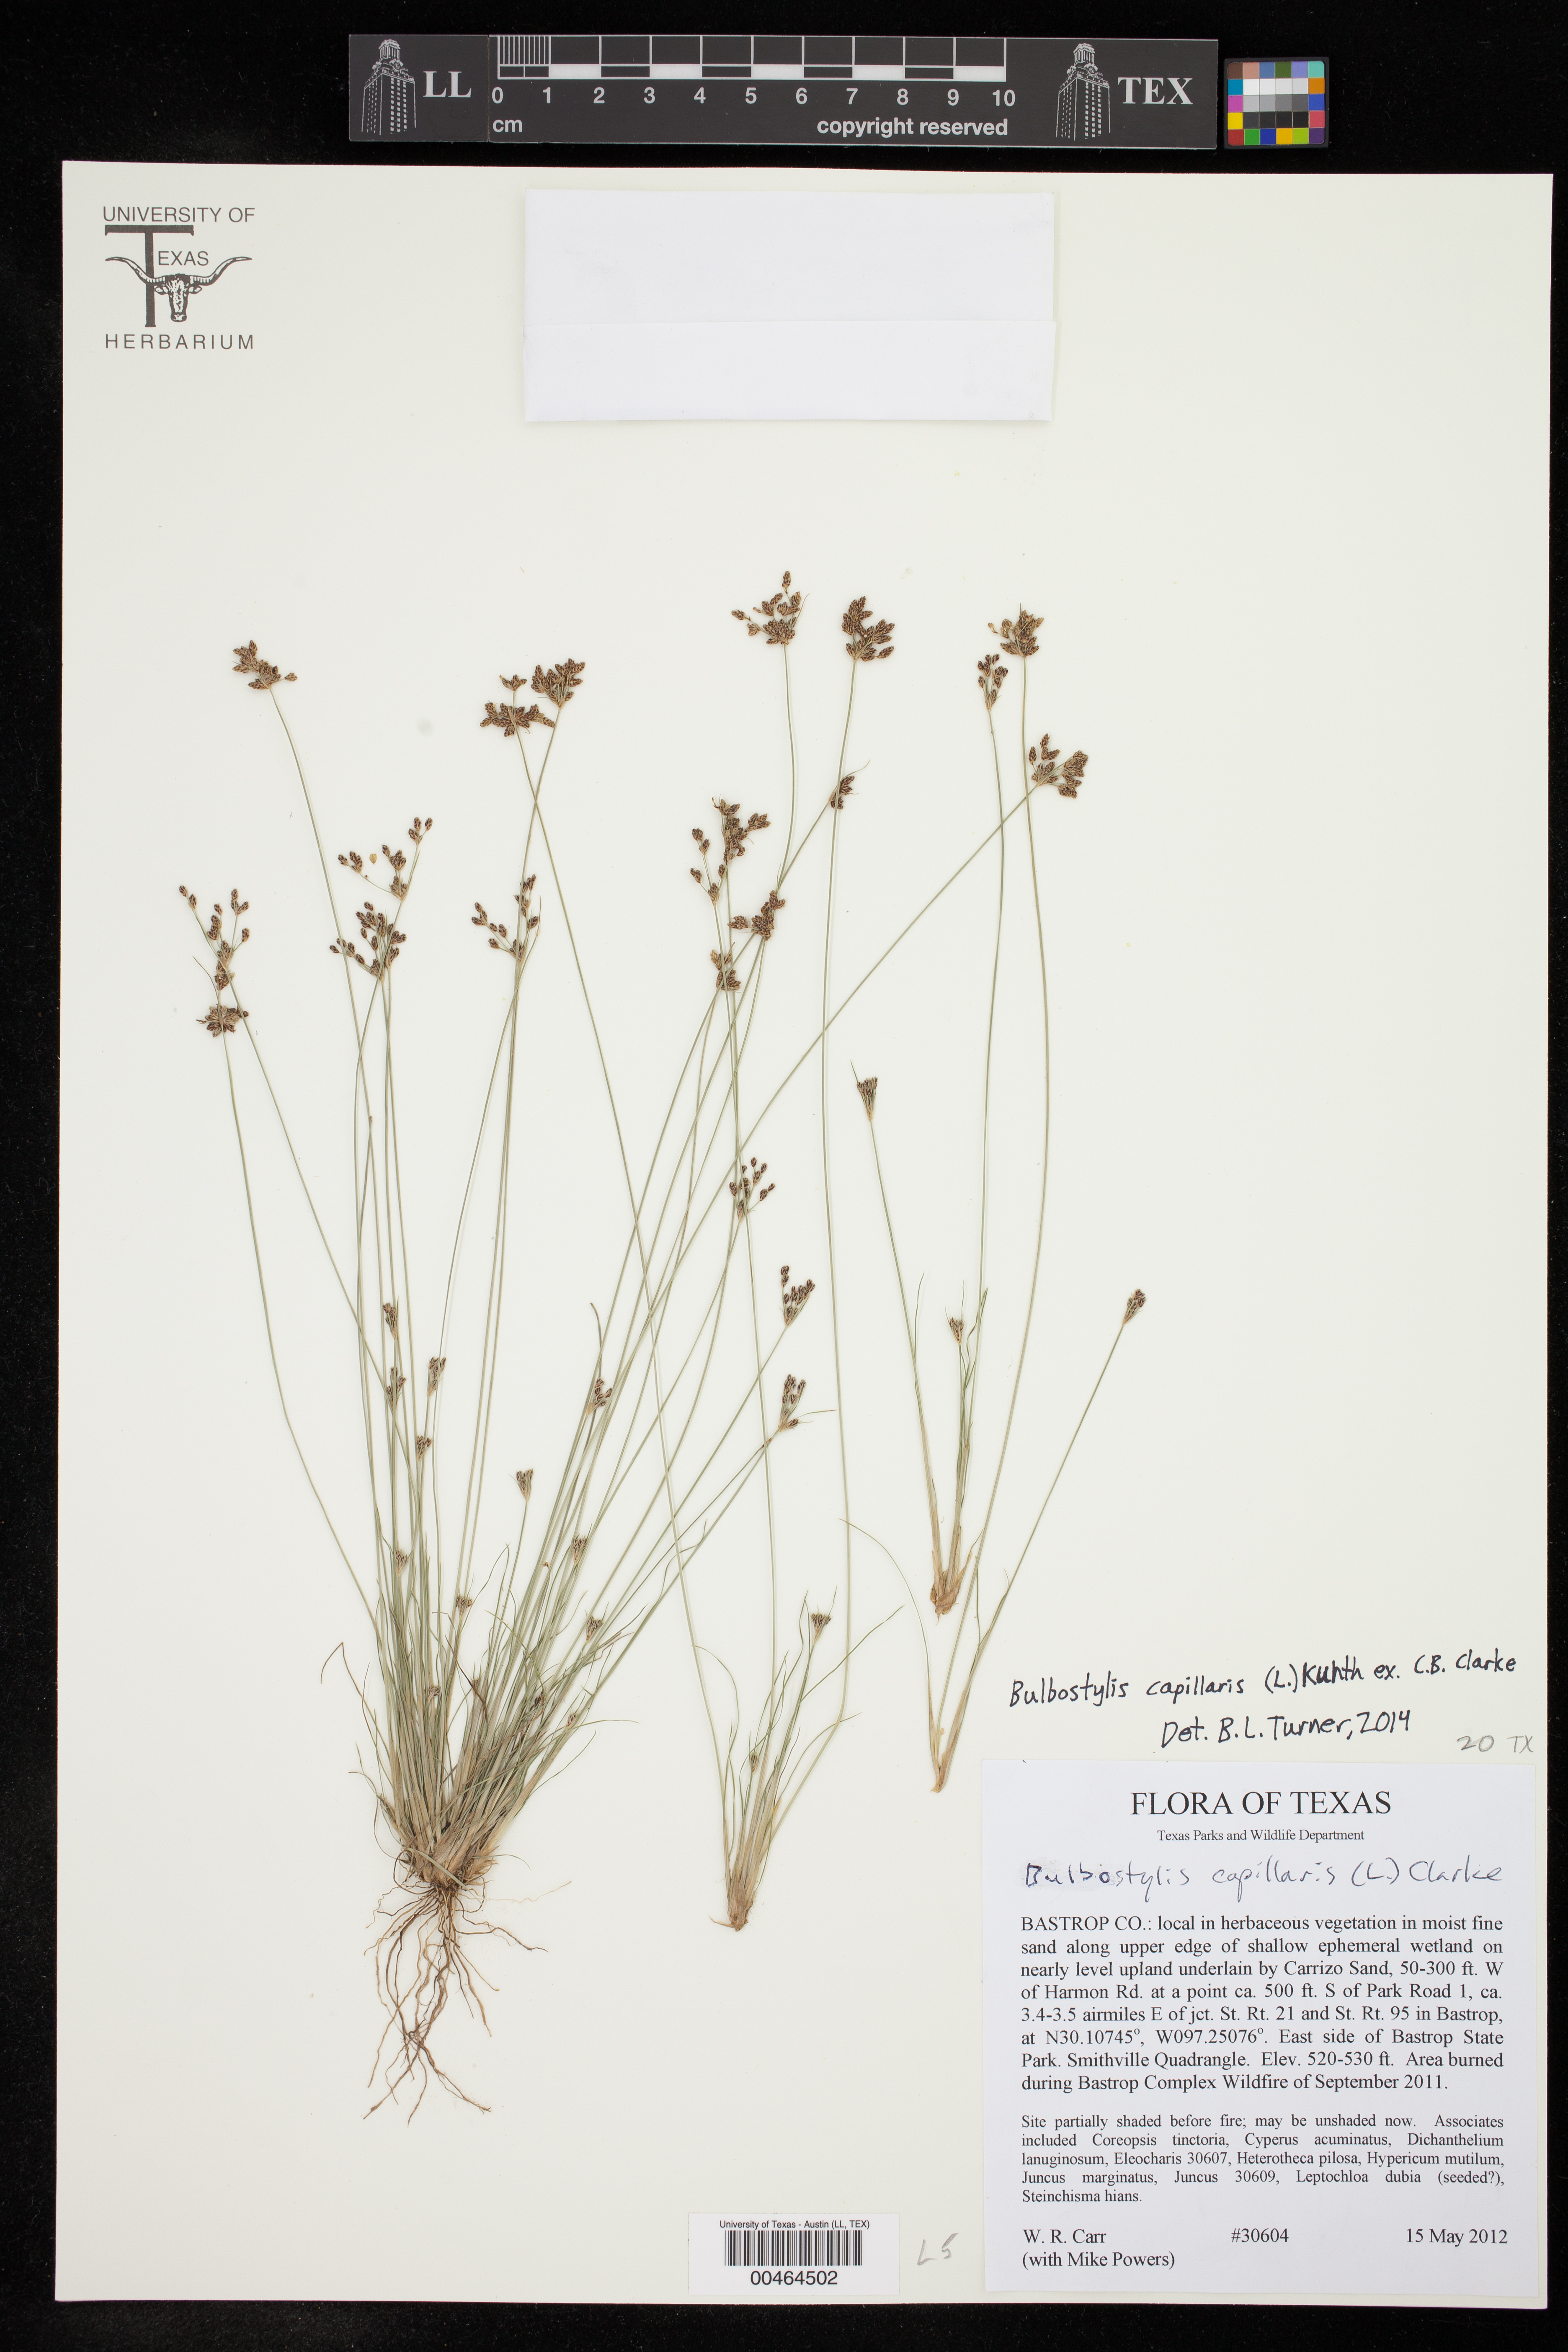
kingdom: Plantae
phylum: Tracheophyta
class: Liliopsida
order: Poales
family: Cyperaceae
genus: Bulbostylis
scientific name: Bulbostylis capillaris
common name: Densetuft hairsedge
